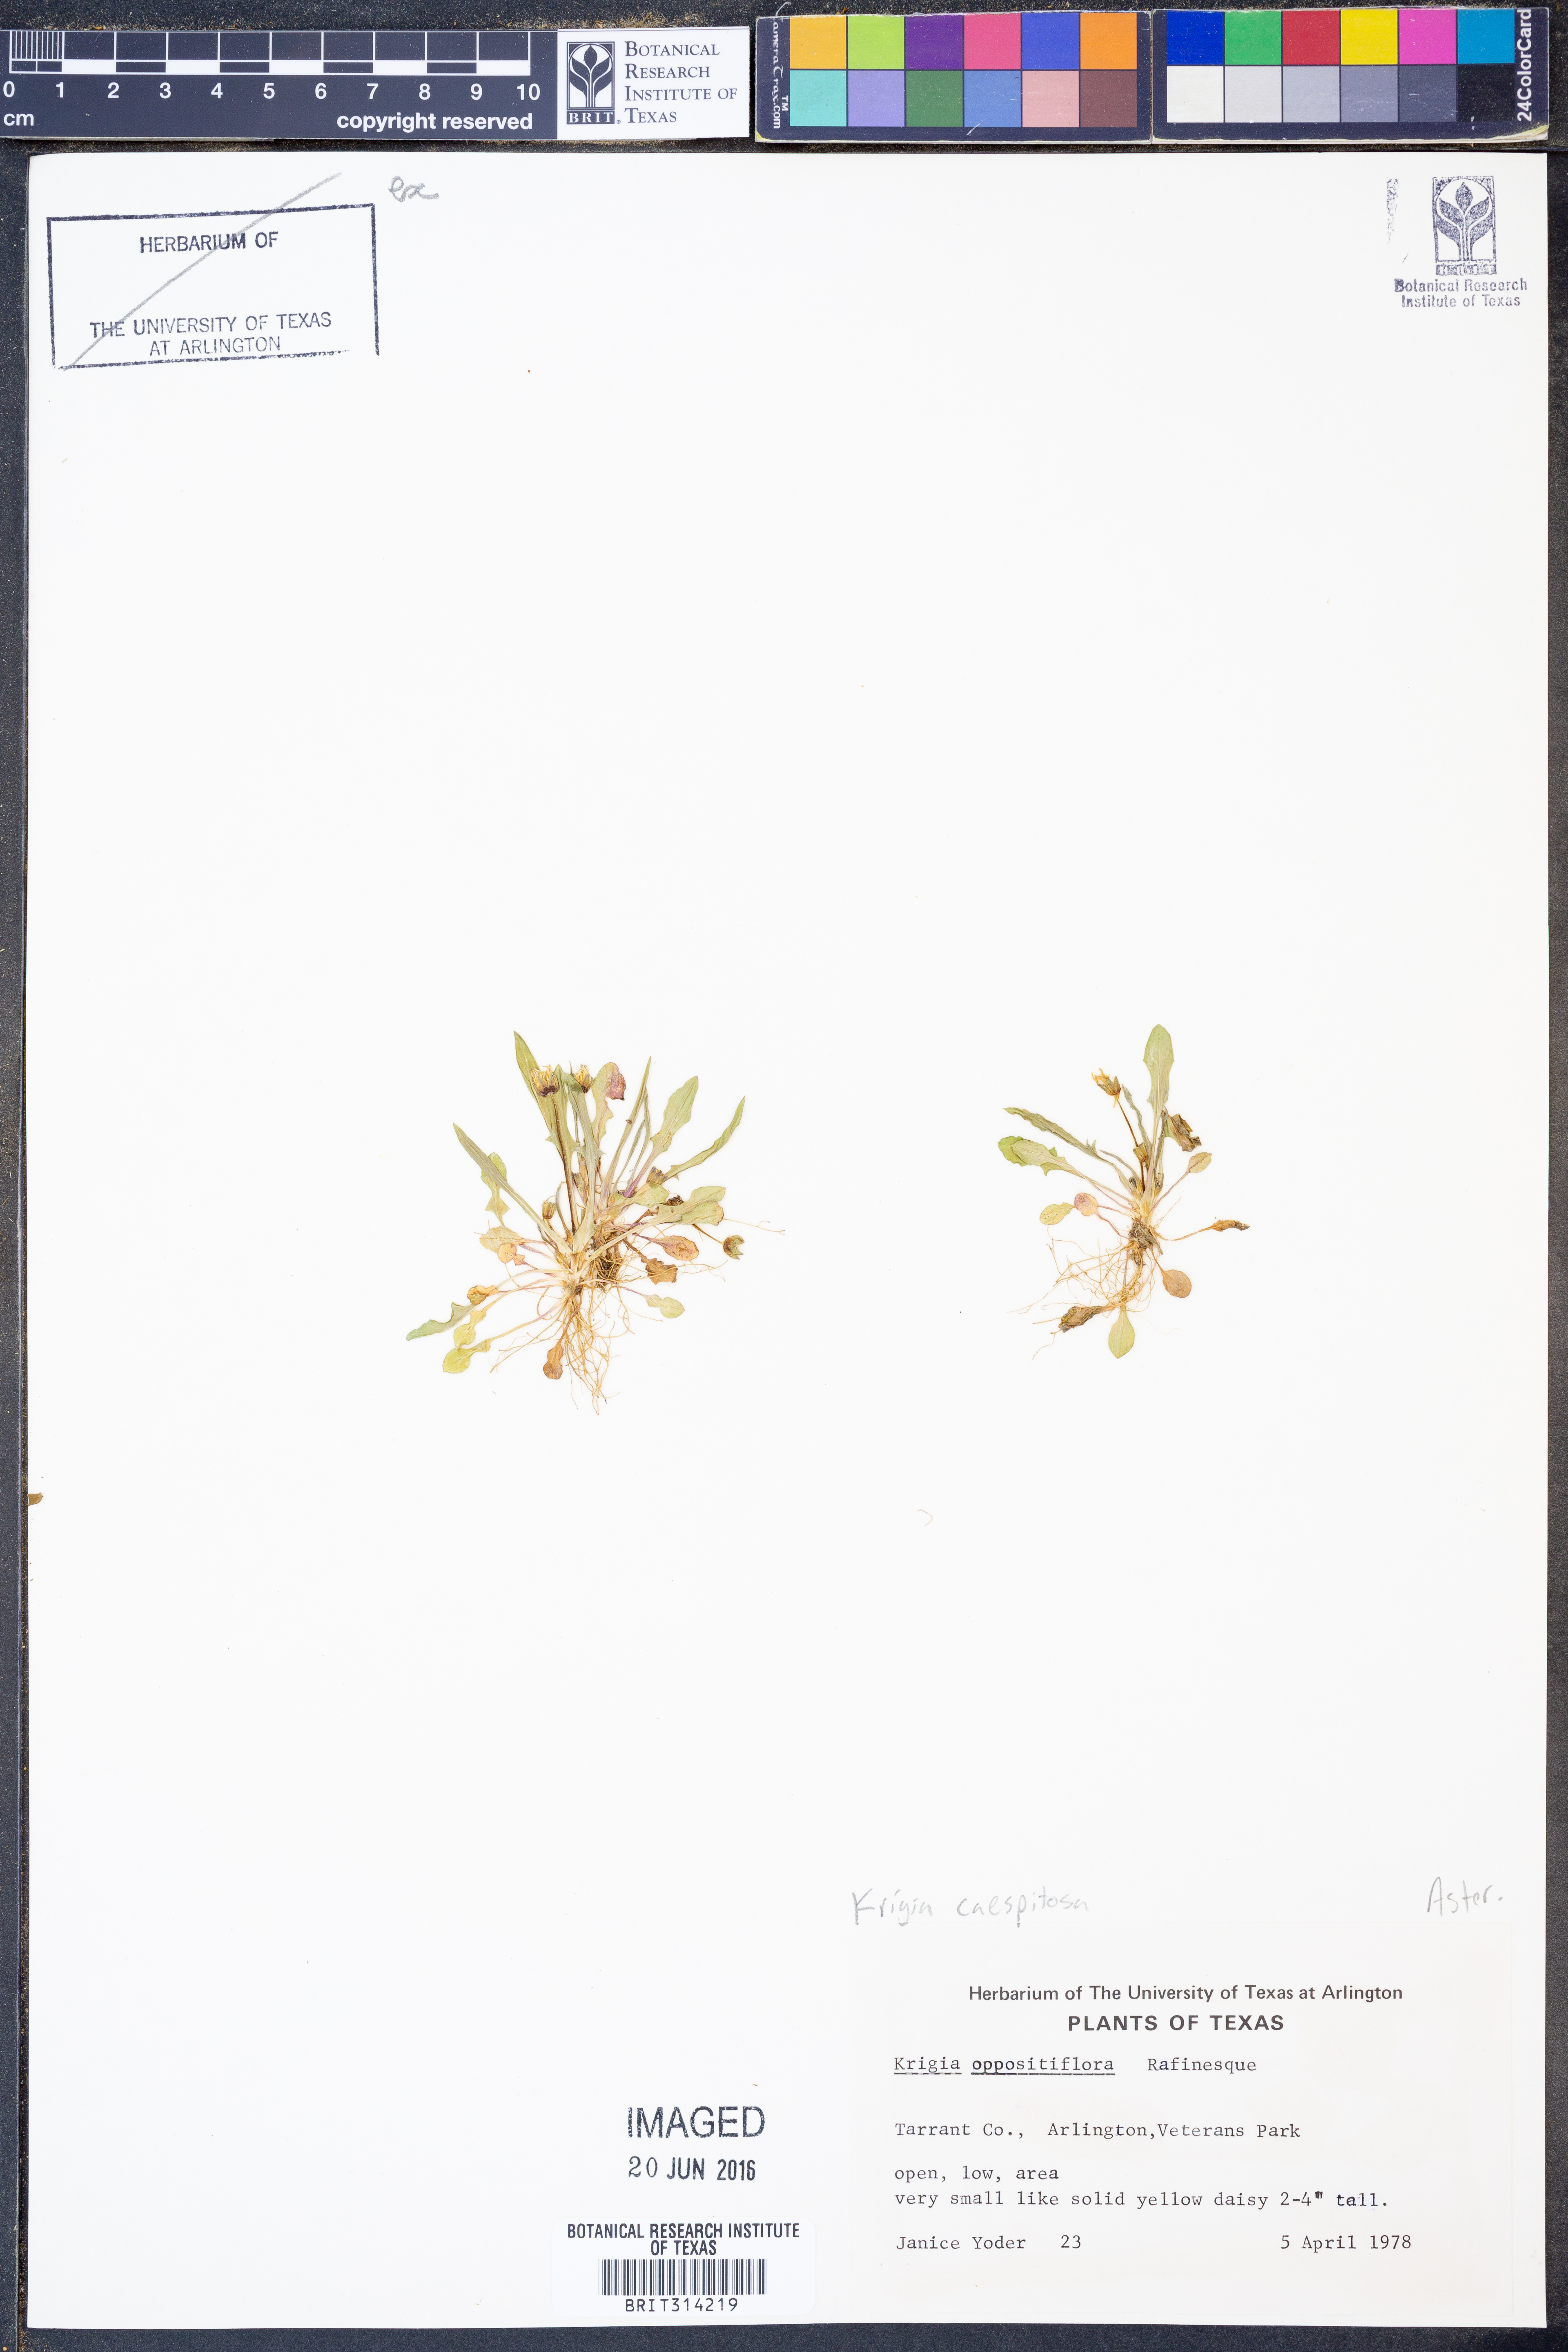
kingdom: Plantae
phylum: Tracheophyta
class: Magnoliopsida
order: Asterales
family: Asteraceae
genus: Krigia
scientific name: Krigia cespitosa
